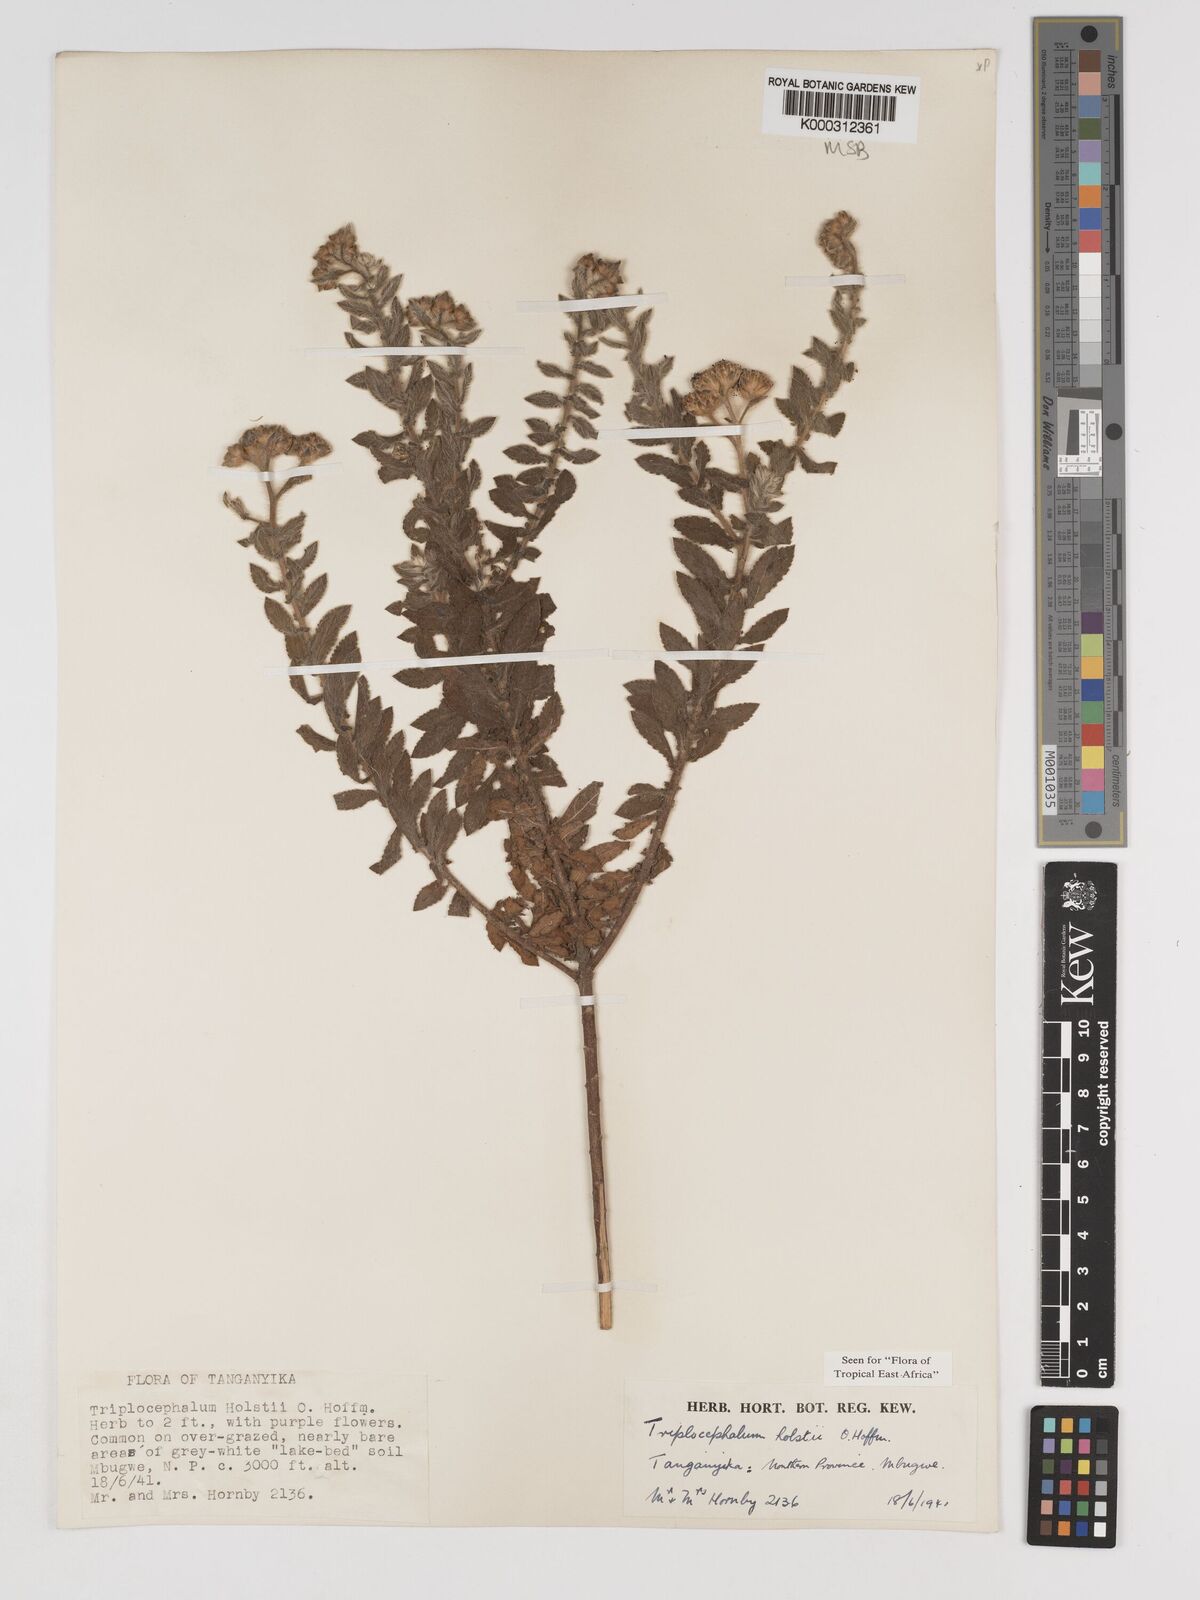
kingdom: Plantae
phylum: Tracheophyta
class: Magnoliopsida
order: Asterales
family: Asteraceae
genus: Triplocephalum
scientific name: Triplocephalum holstii
